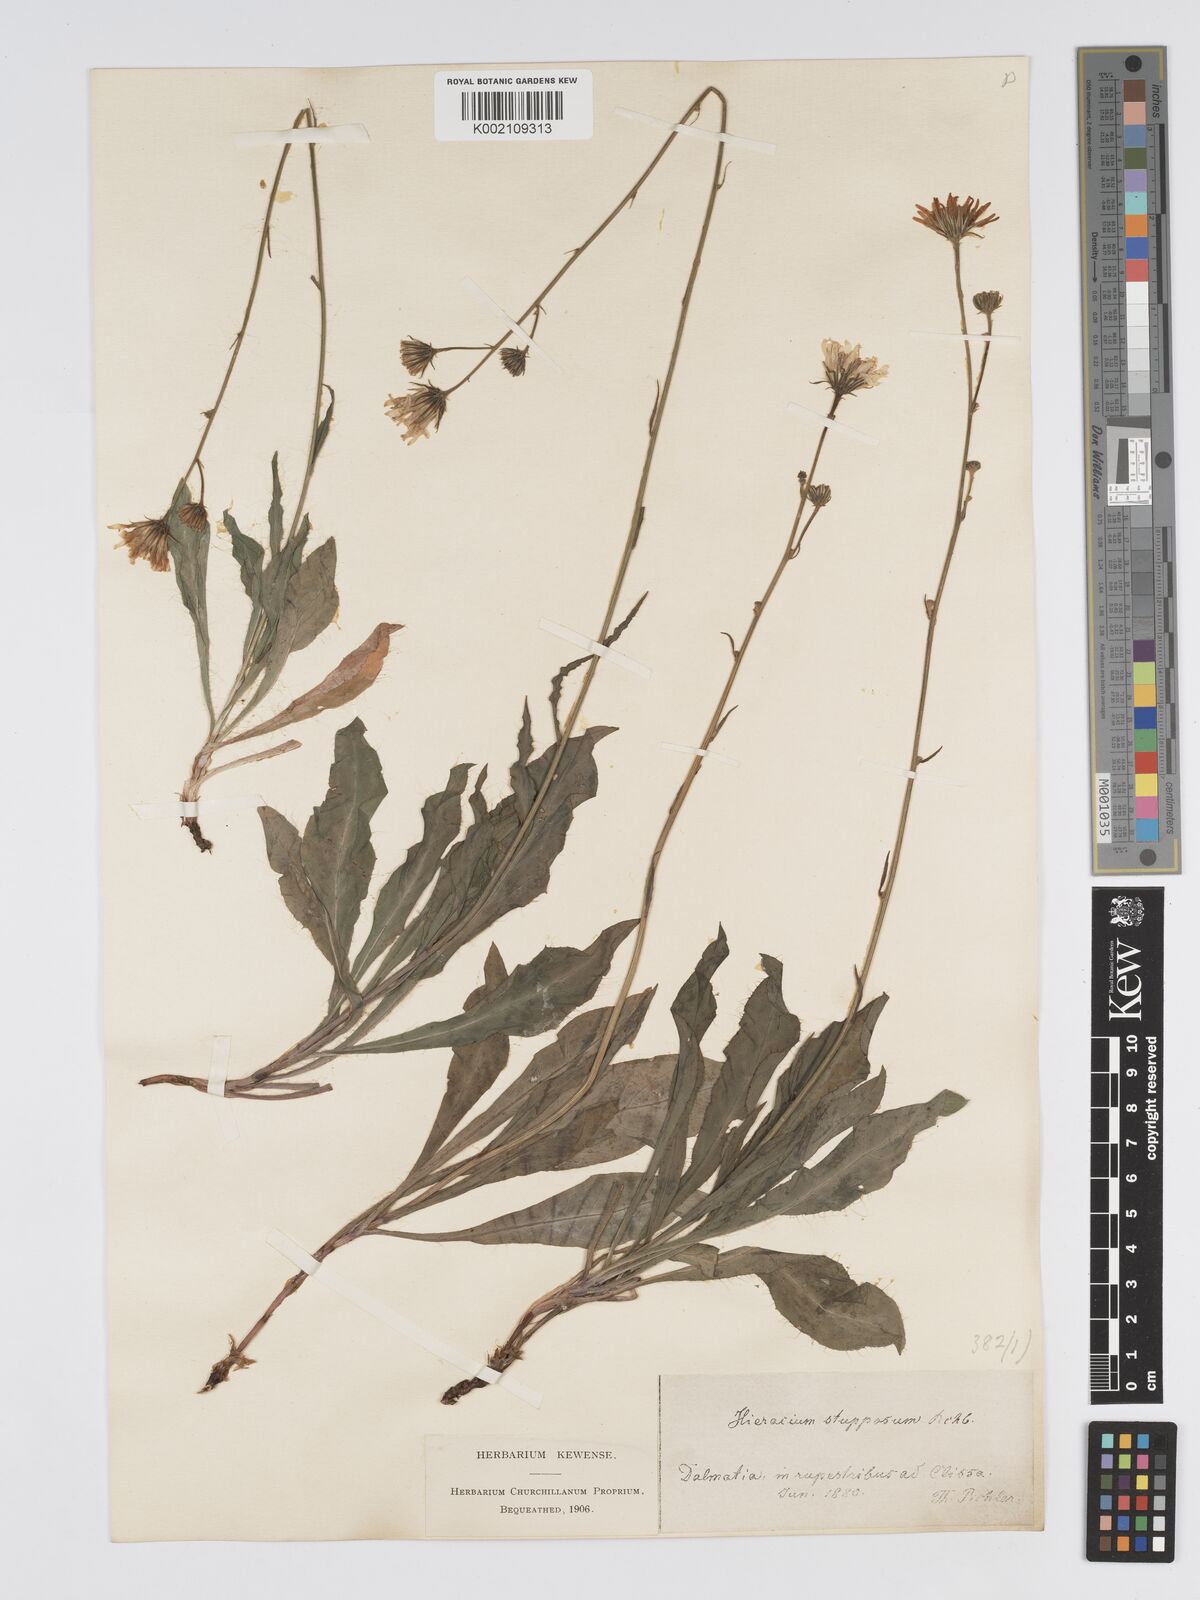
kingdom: Plantae
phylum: Tracheophyta
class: Magnoliopsida
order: Asterales
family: Asteraceae
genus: Hieracium
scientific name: Hieracium heterogynum
